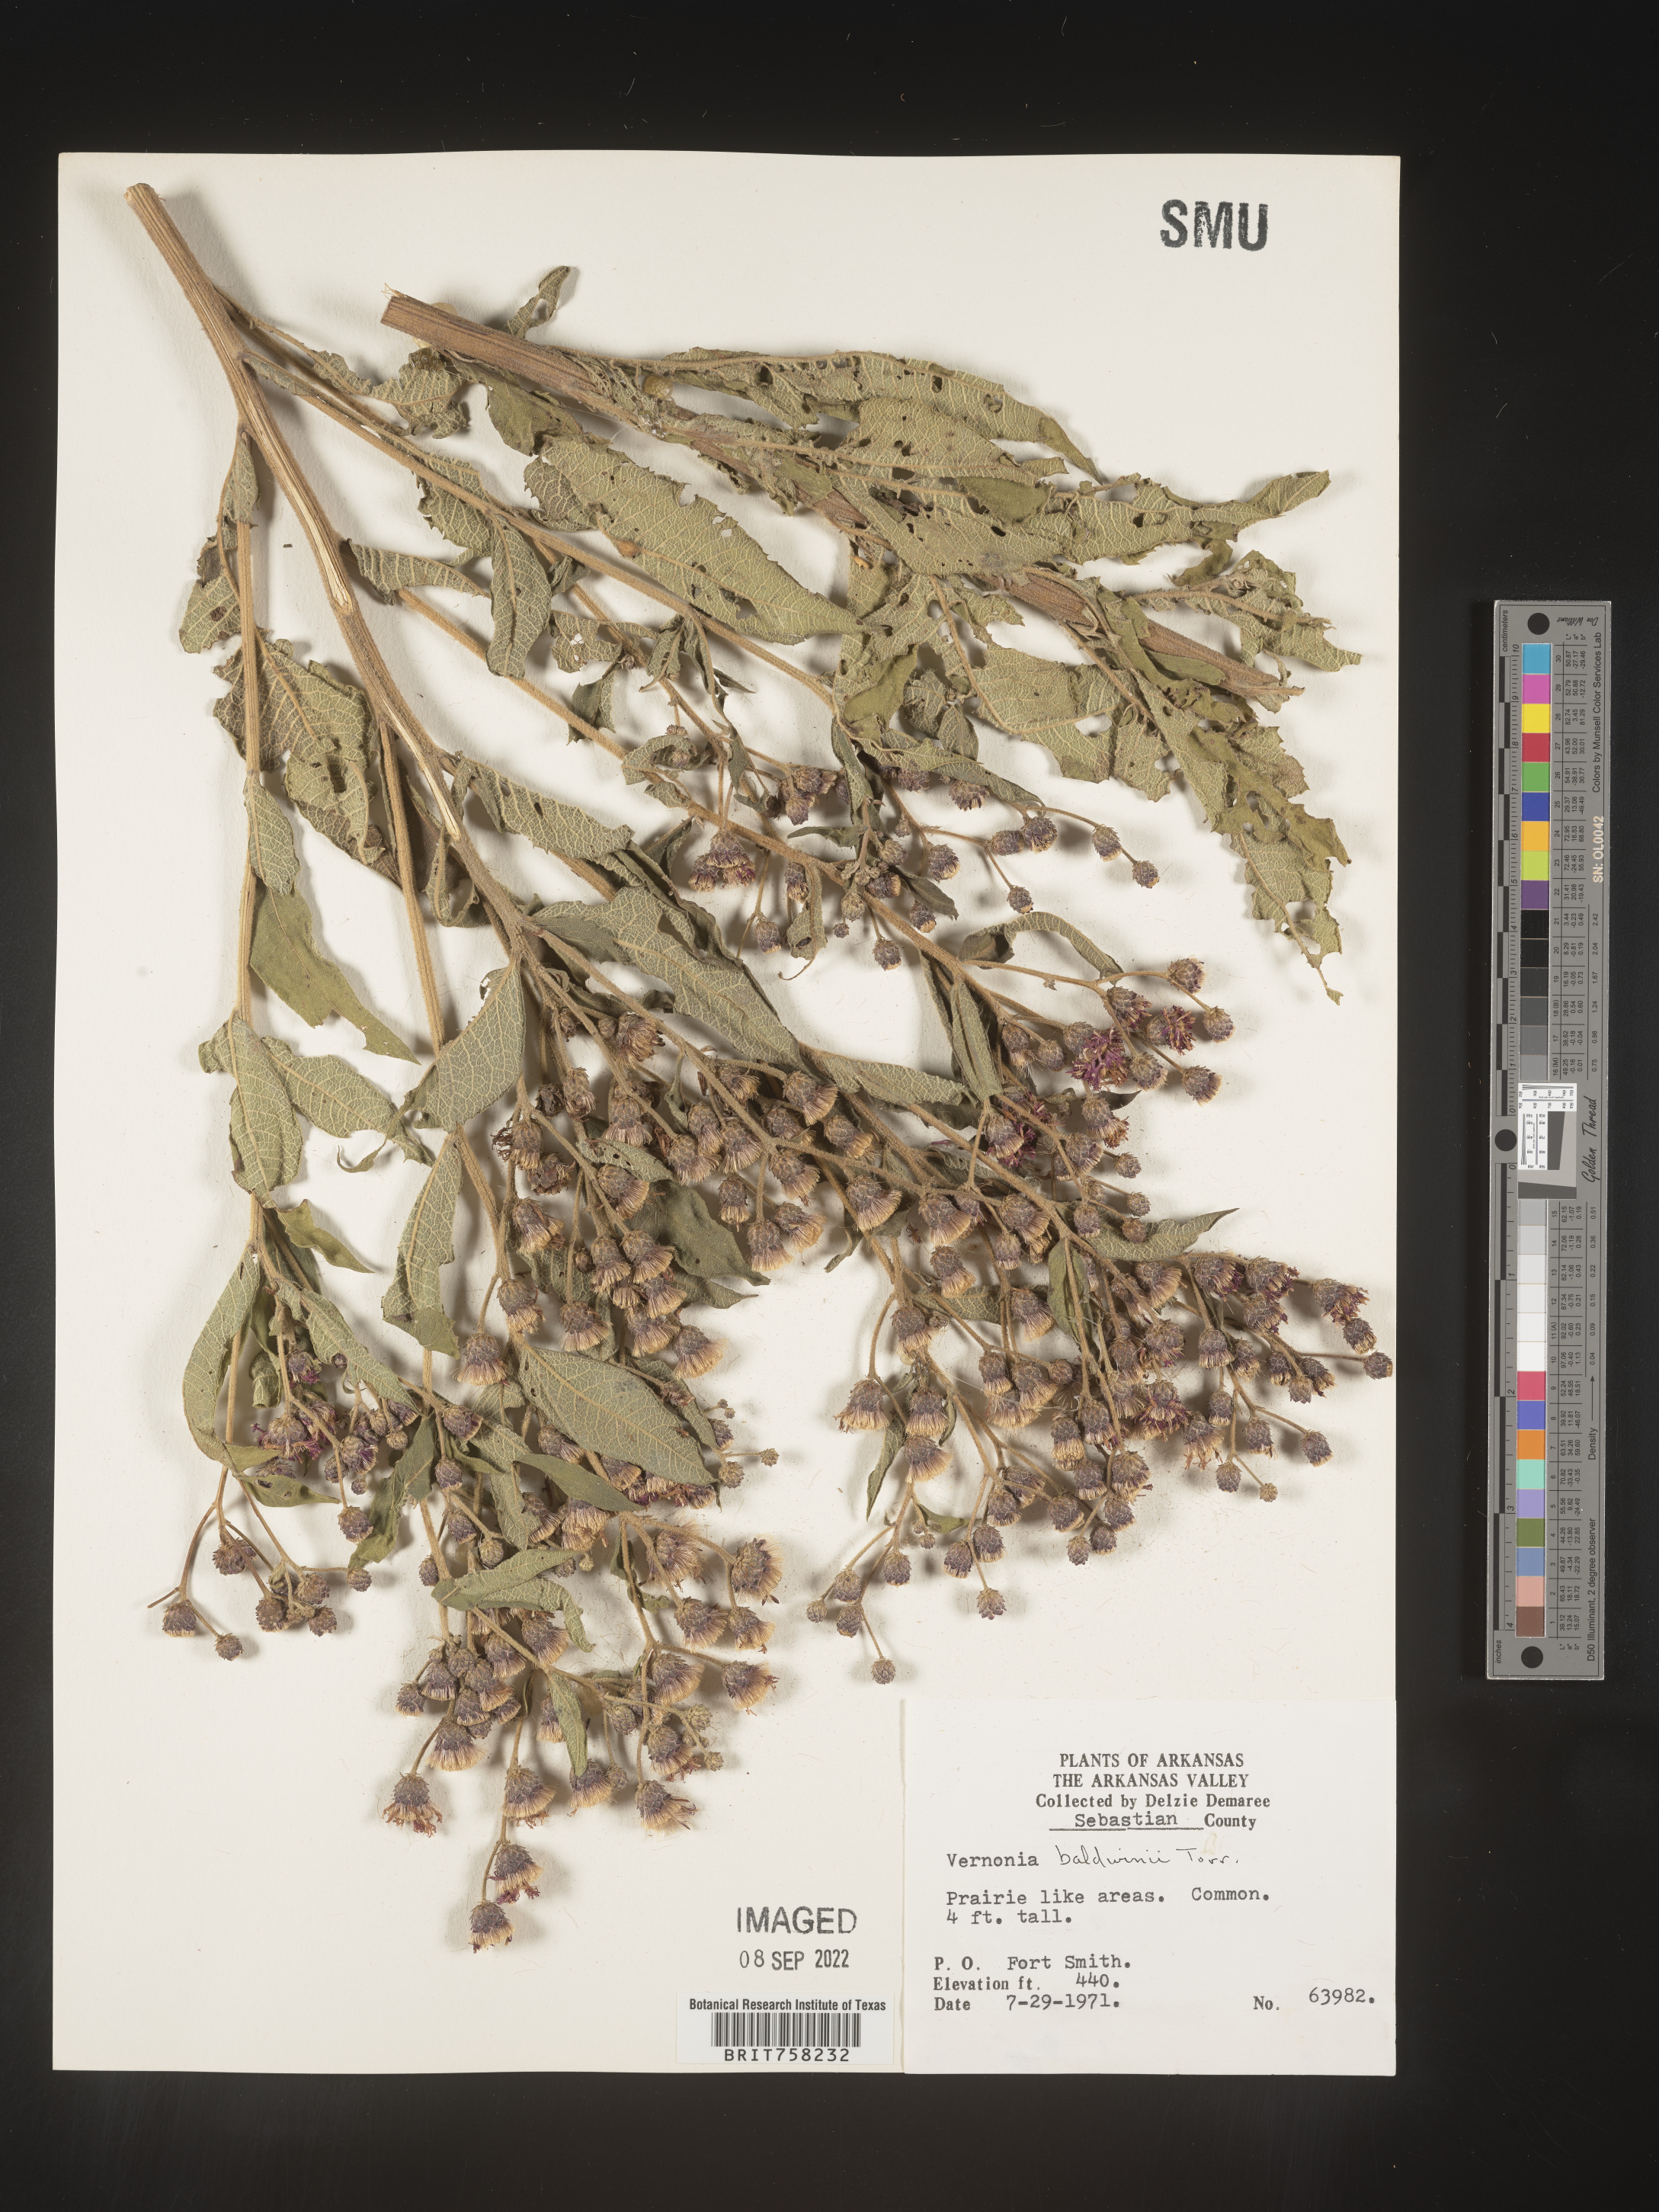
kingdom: Plantae
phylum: Tracheophyta
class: Magnoliopsida
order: Asterales
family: Asteraceae
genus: Vernonia
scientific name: Vernonia baldwinii
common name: Western ironweed
